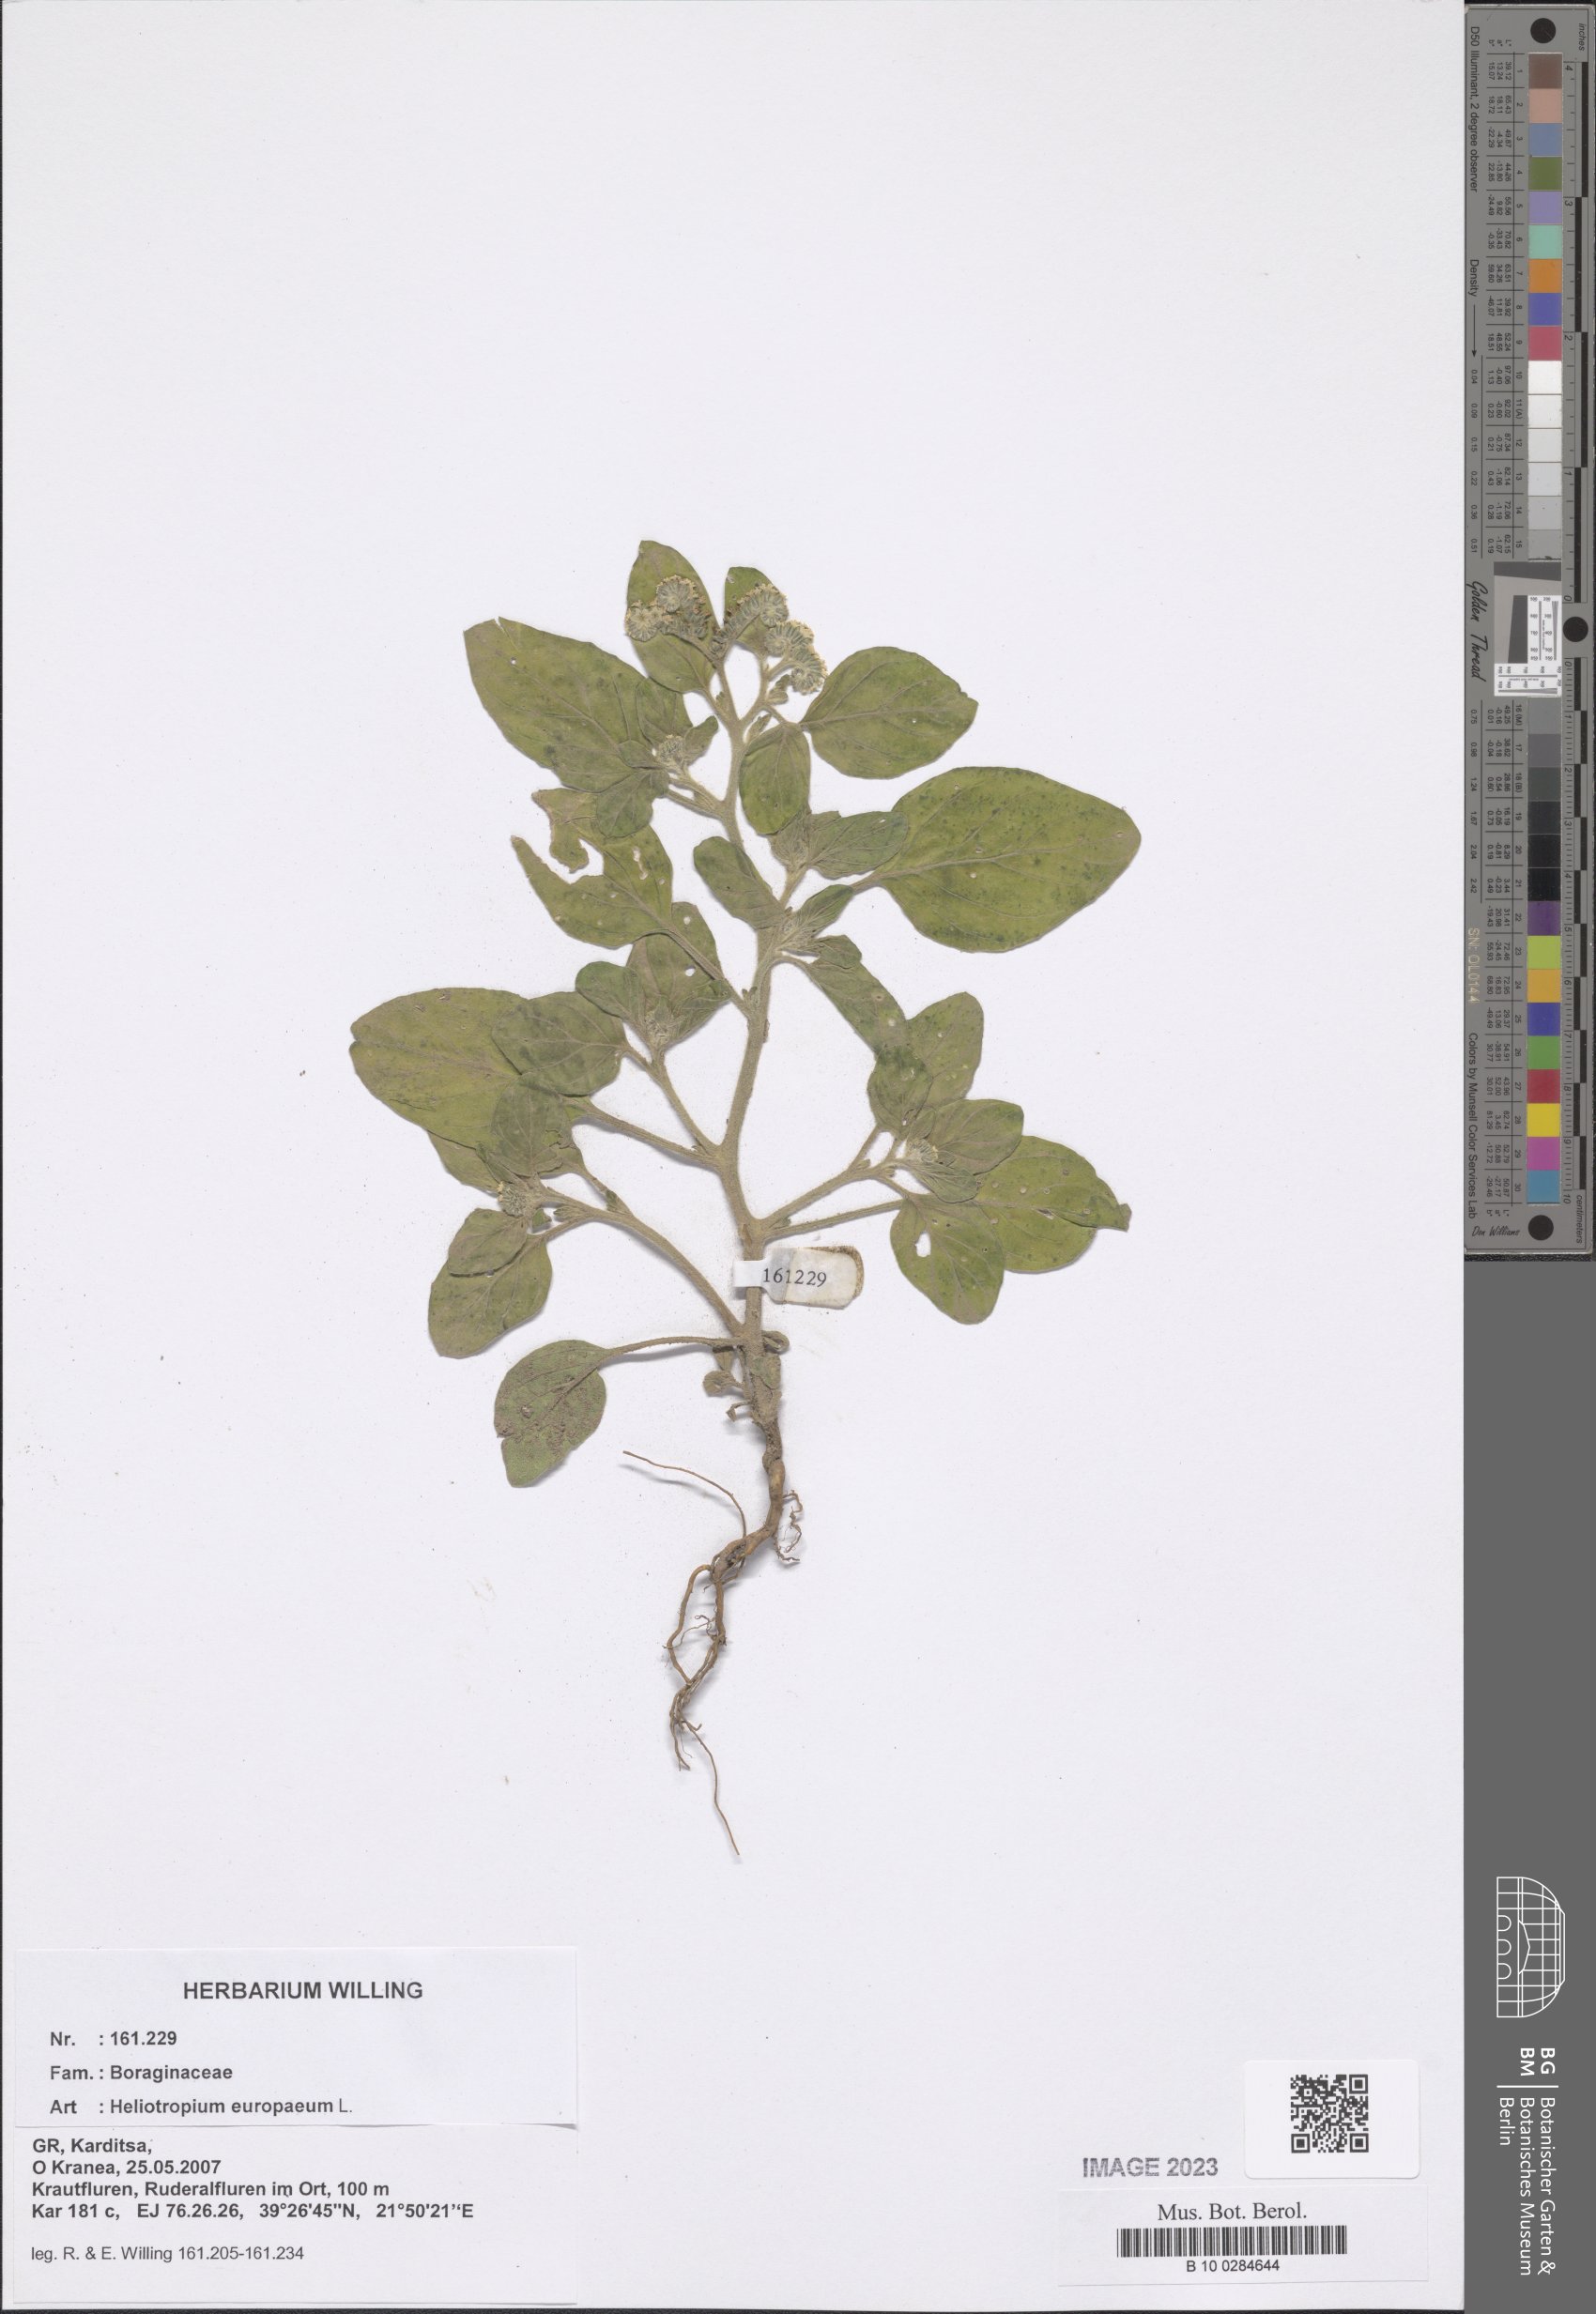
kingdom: Plantae
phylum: Tracheophyta
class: Magnoliopsida
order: Boraginales
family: Heliotropiaceae
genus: Heliotropium
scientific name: Heliotropium europaeum
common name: European heliotrope
